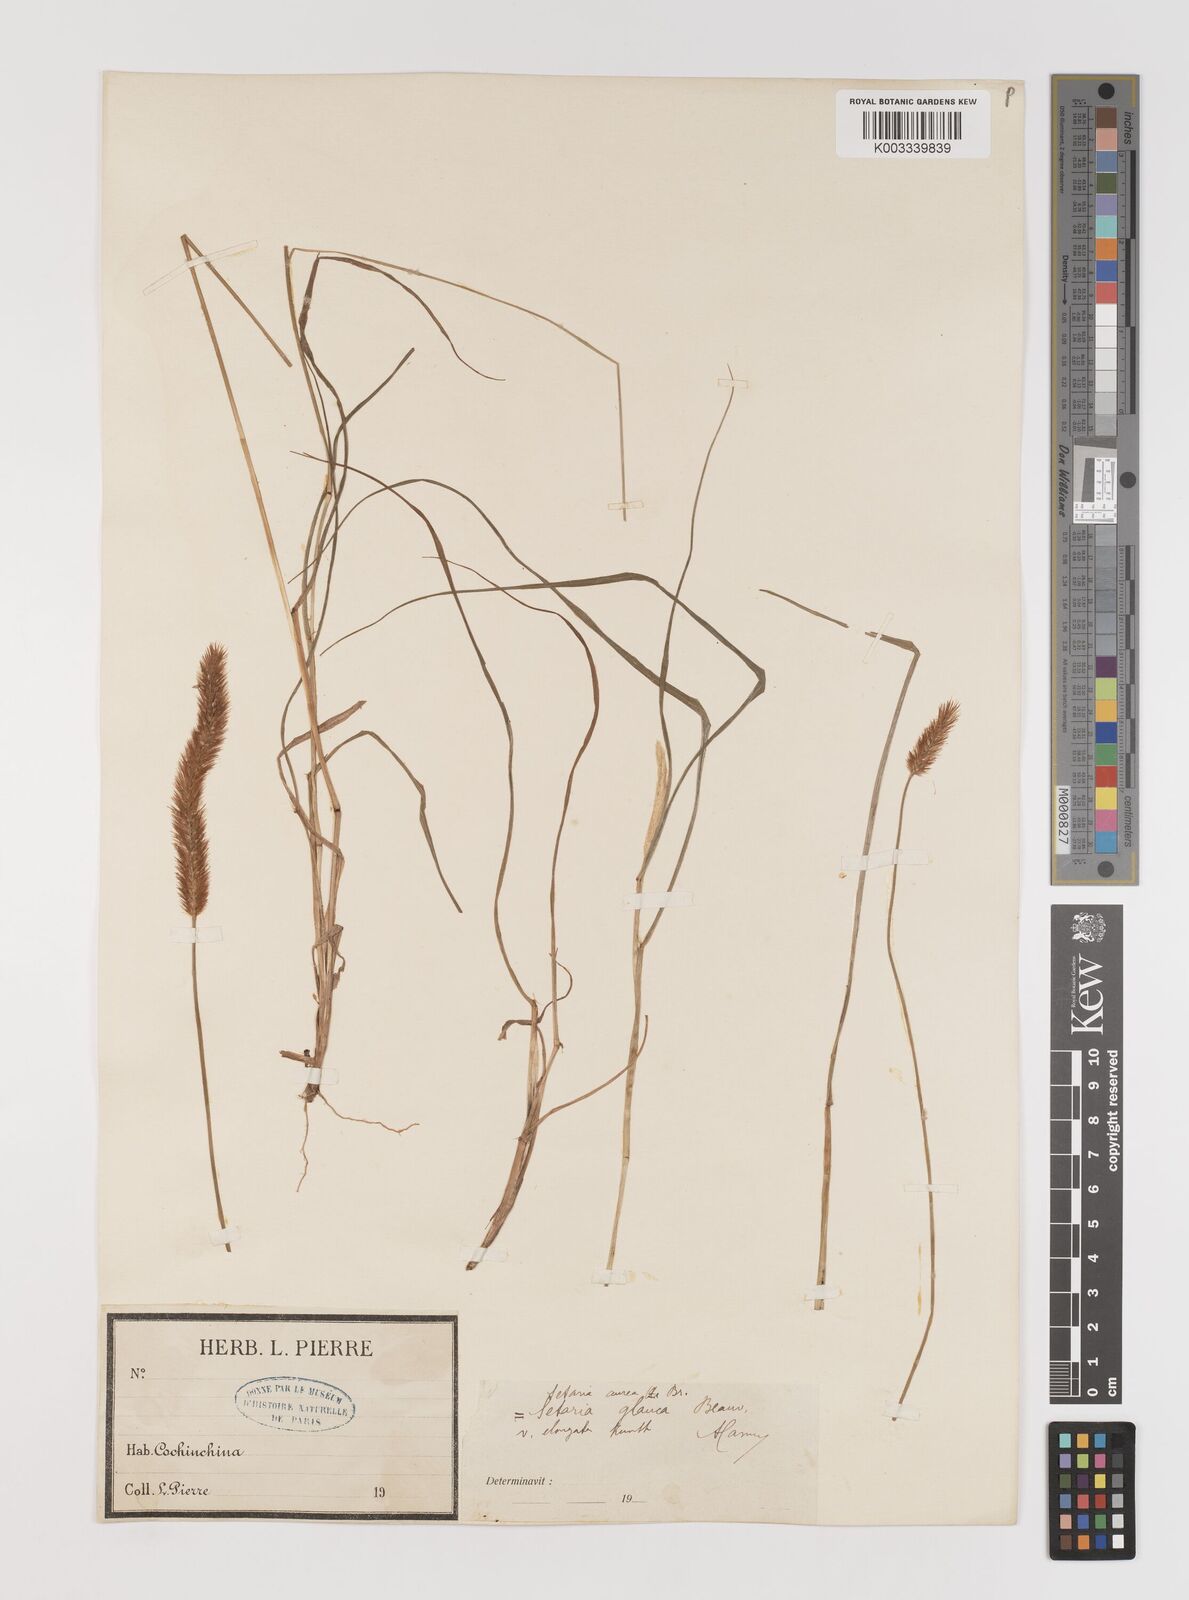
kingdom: Plantae
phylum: Tracheophyta
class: Liliopsida
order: Poales
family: Poaceae
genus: Setaria
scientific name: Setaria pumila
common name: Yellow bristle-grass
